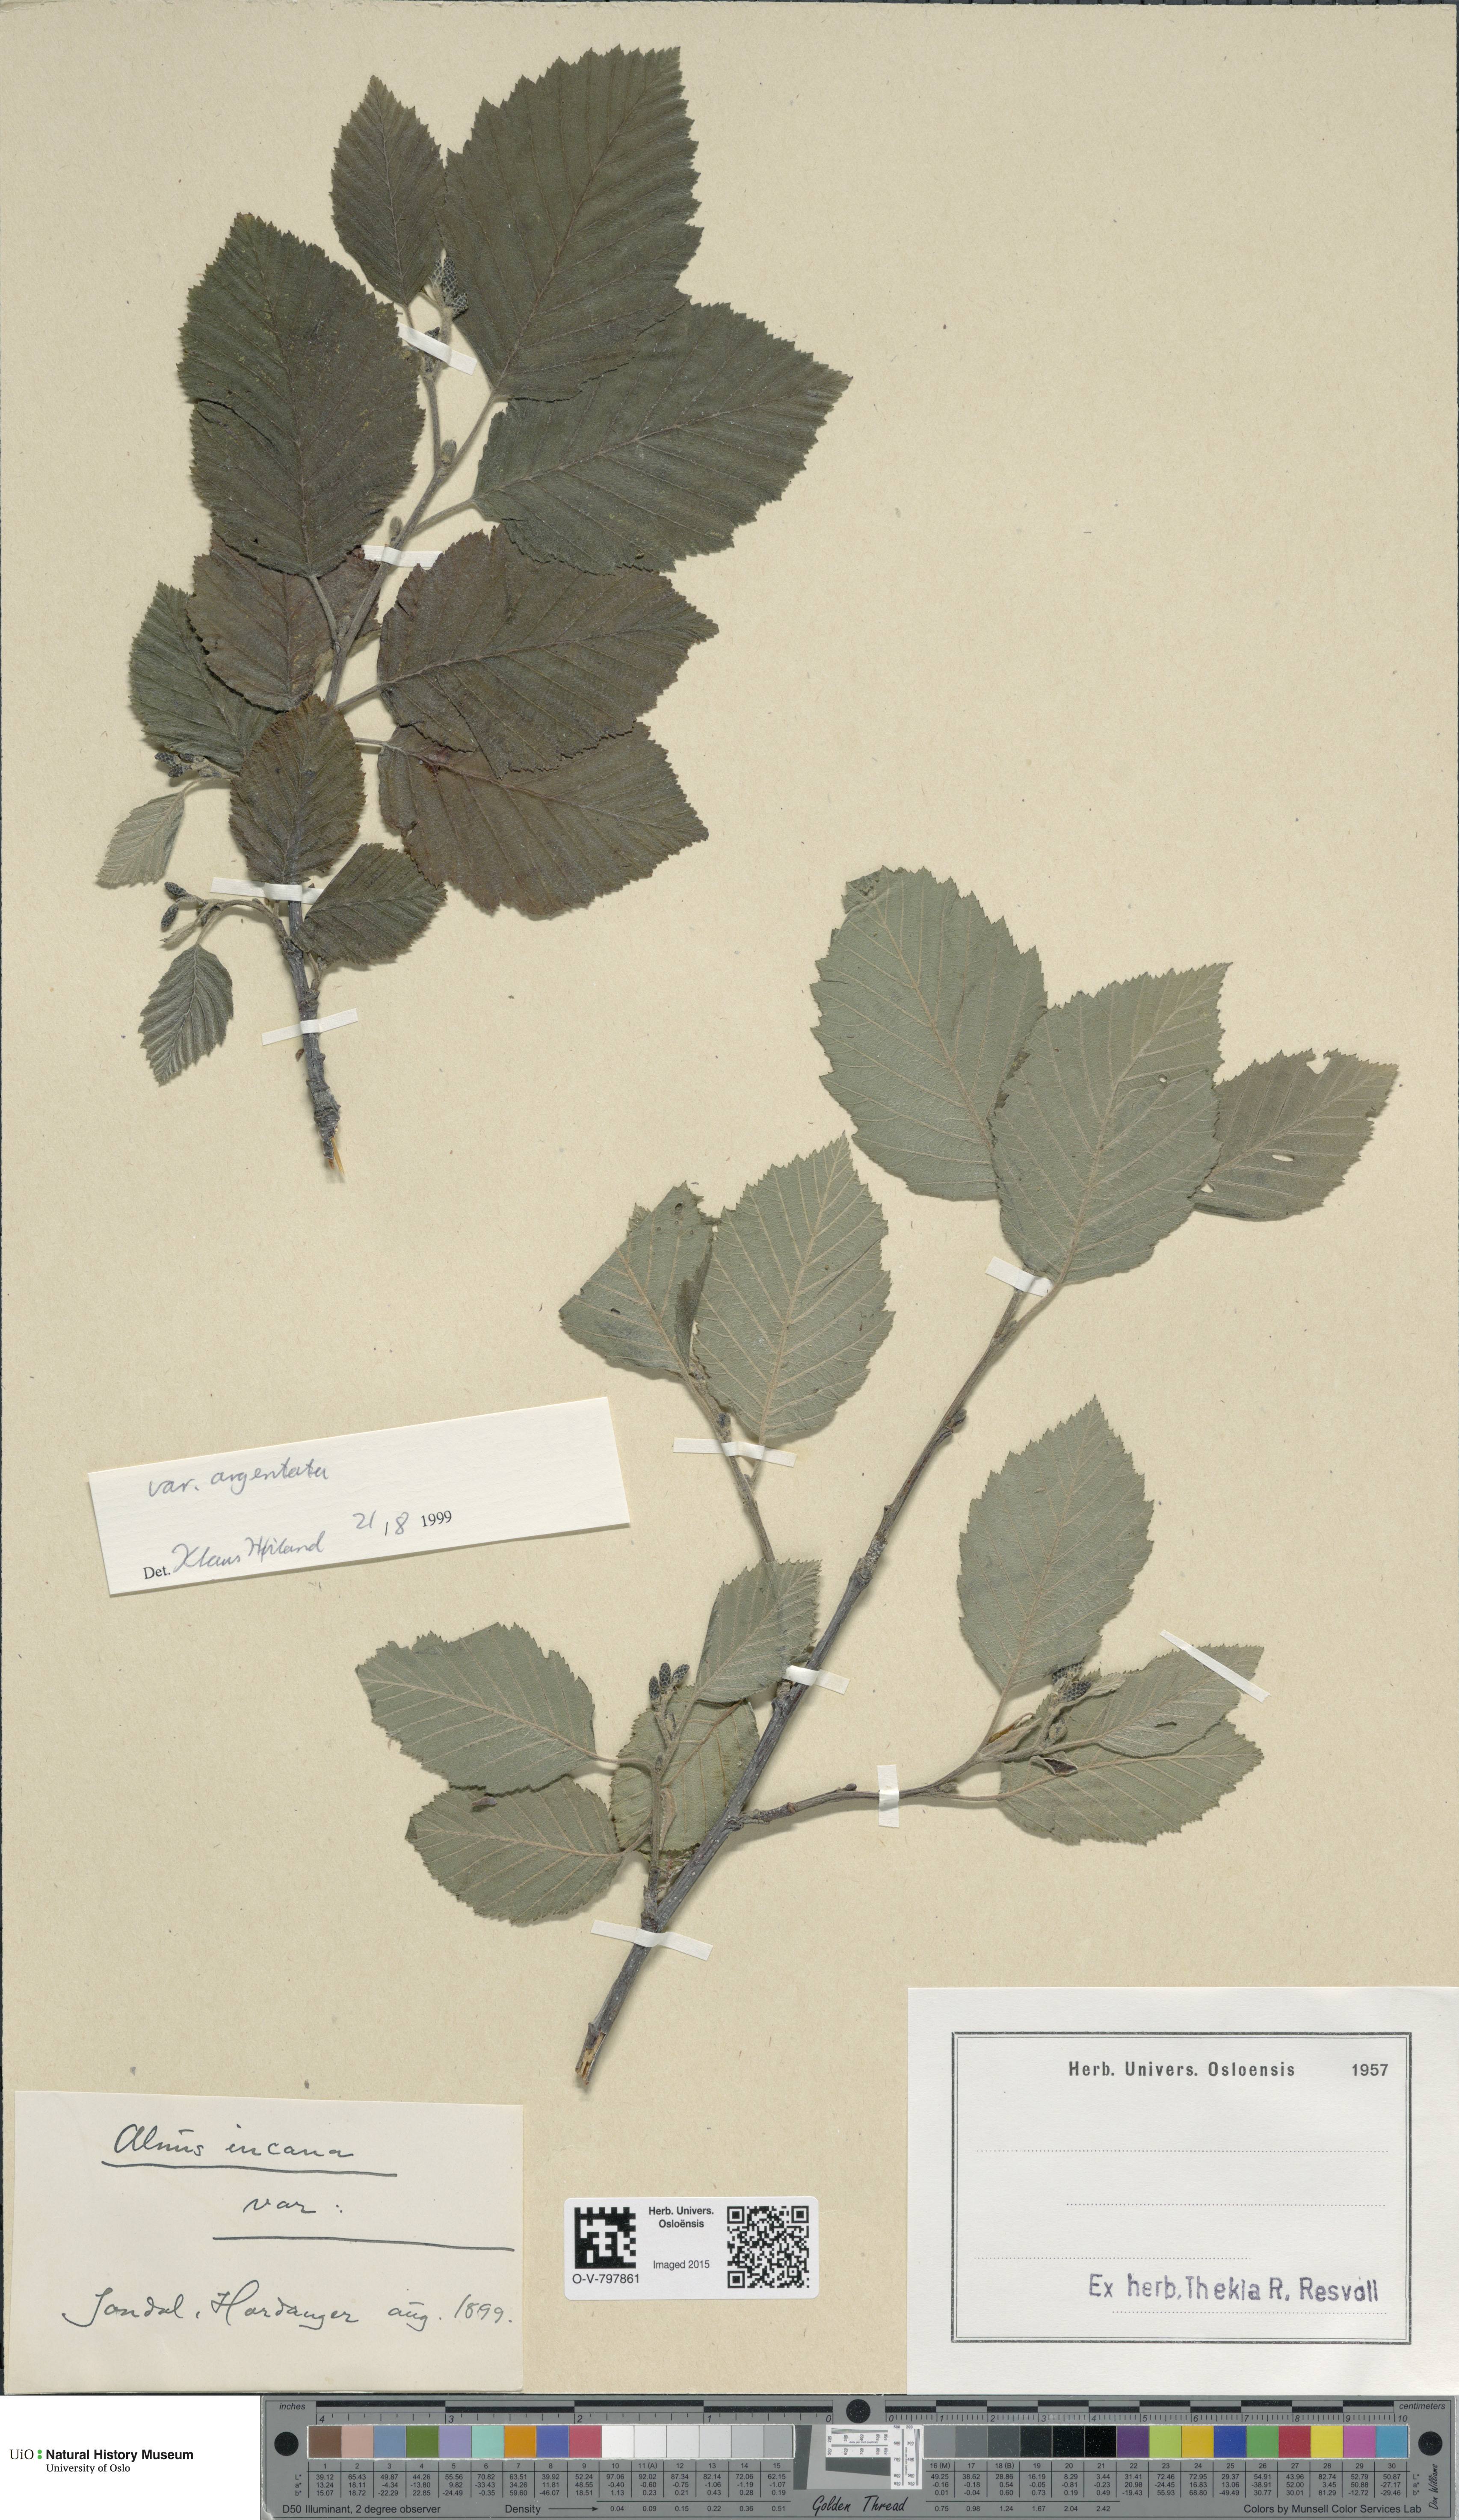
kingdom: Plantae
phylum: Tracheophyta
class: Magnoliopsida
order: Fagales
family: Betulaceae
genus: Alnus
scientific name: Alnus incana
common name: Grey alder
